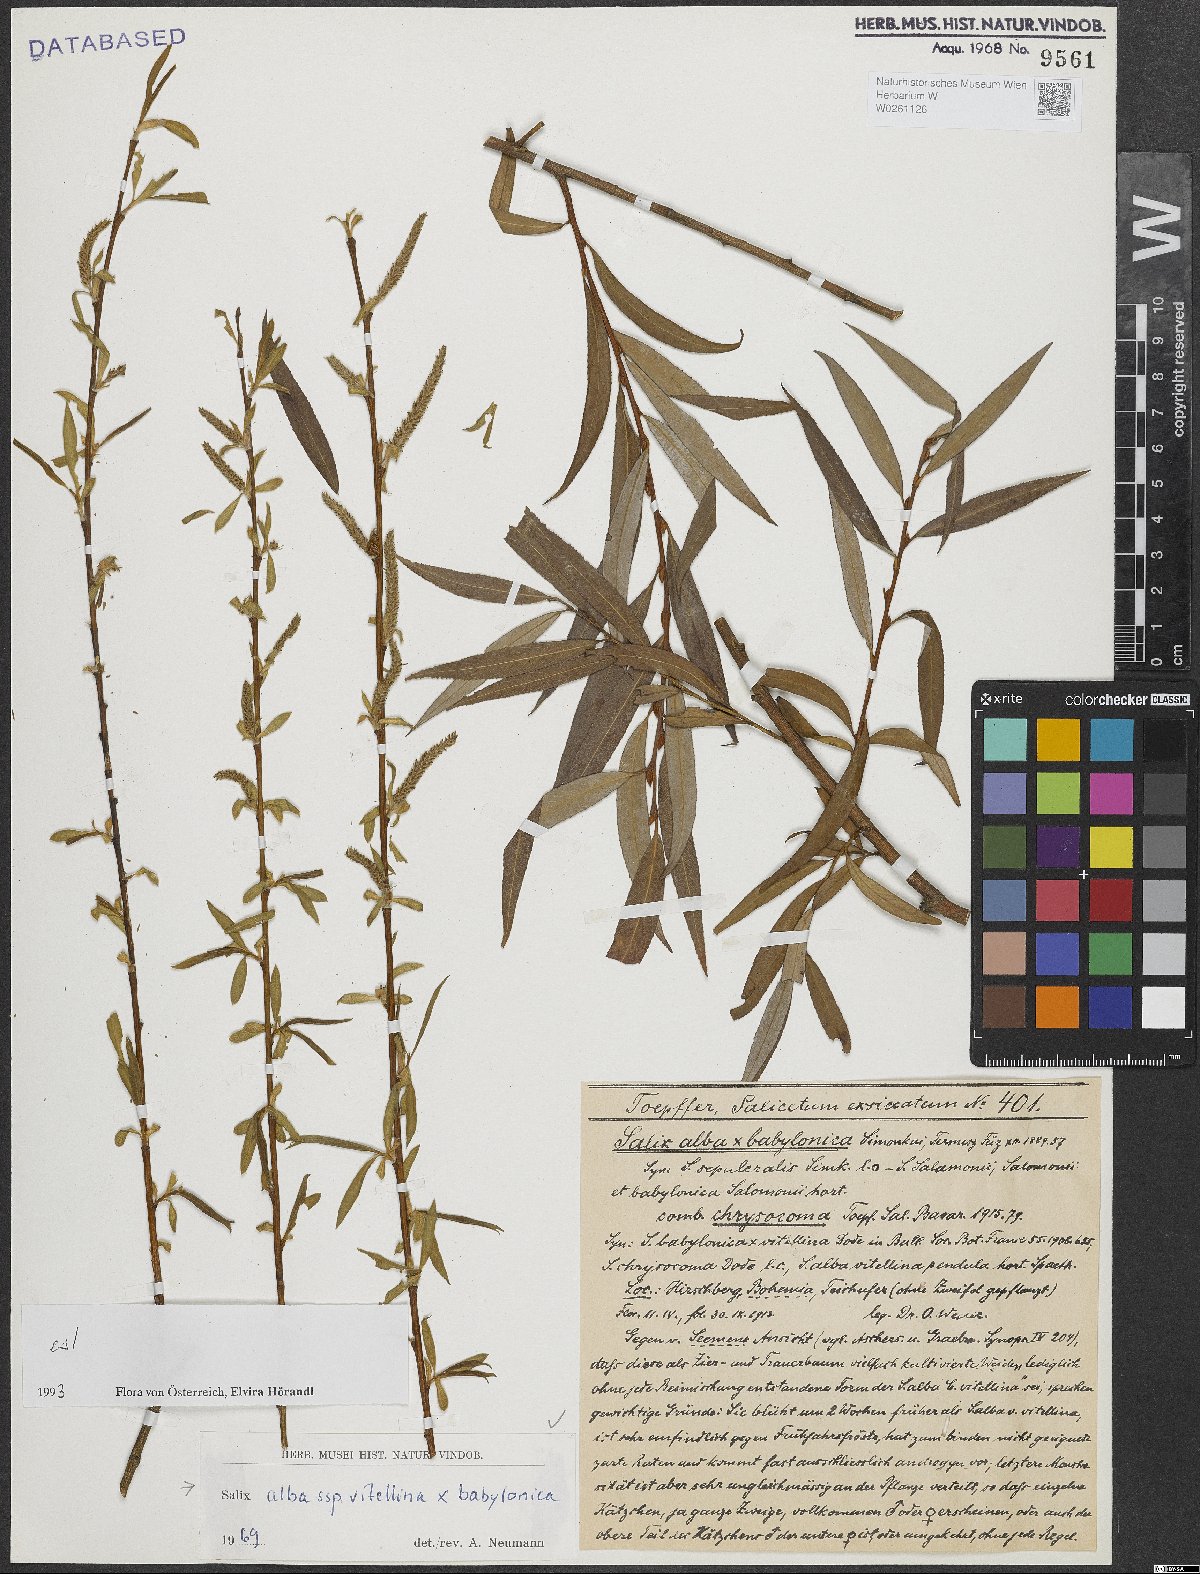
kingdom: Plantae
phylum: Tracheophyta
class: Magnoliopsida
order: Malpighiales
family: Salicaceae
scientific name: Salicaceae
